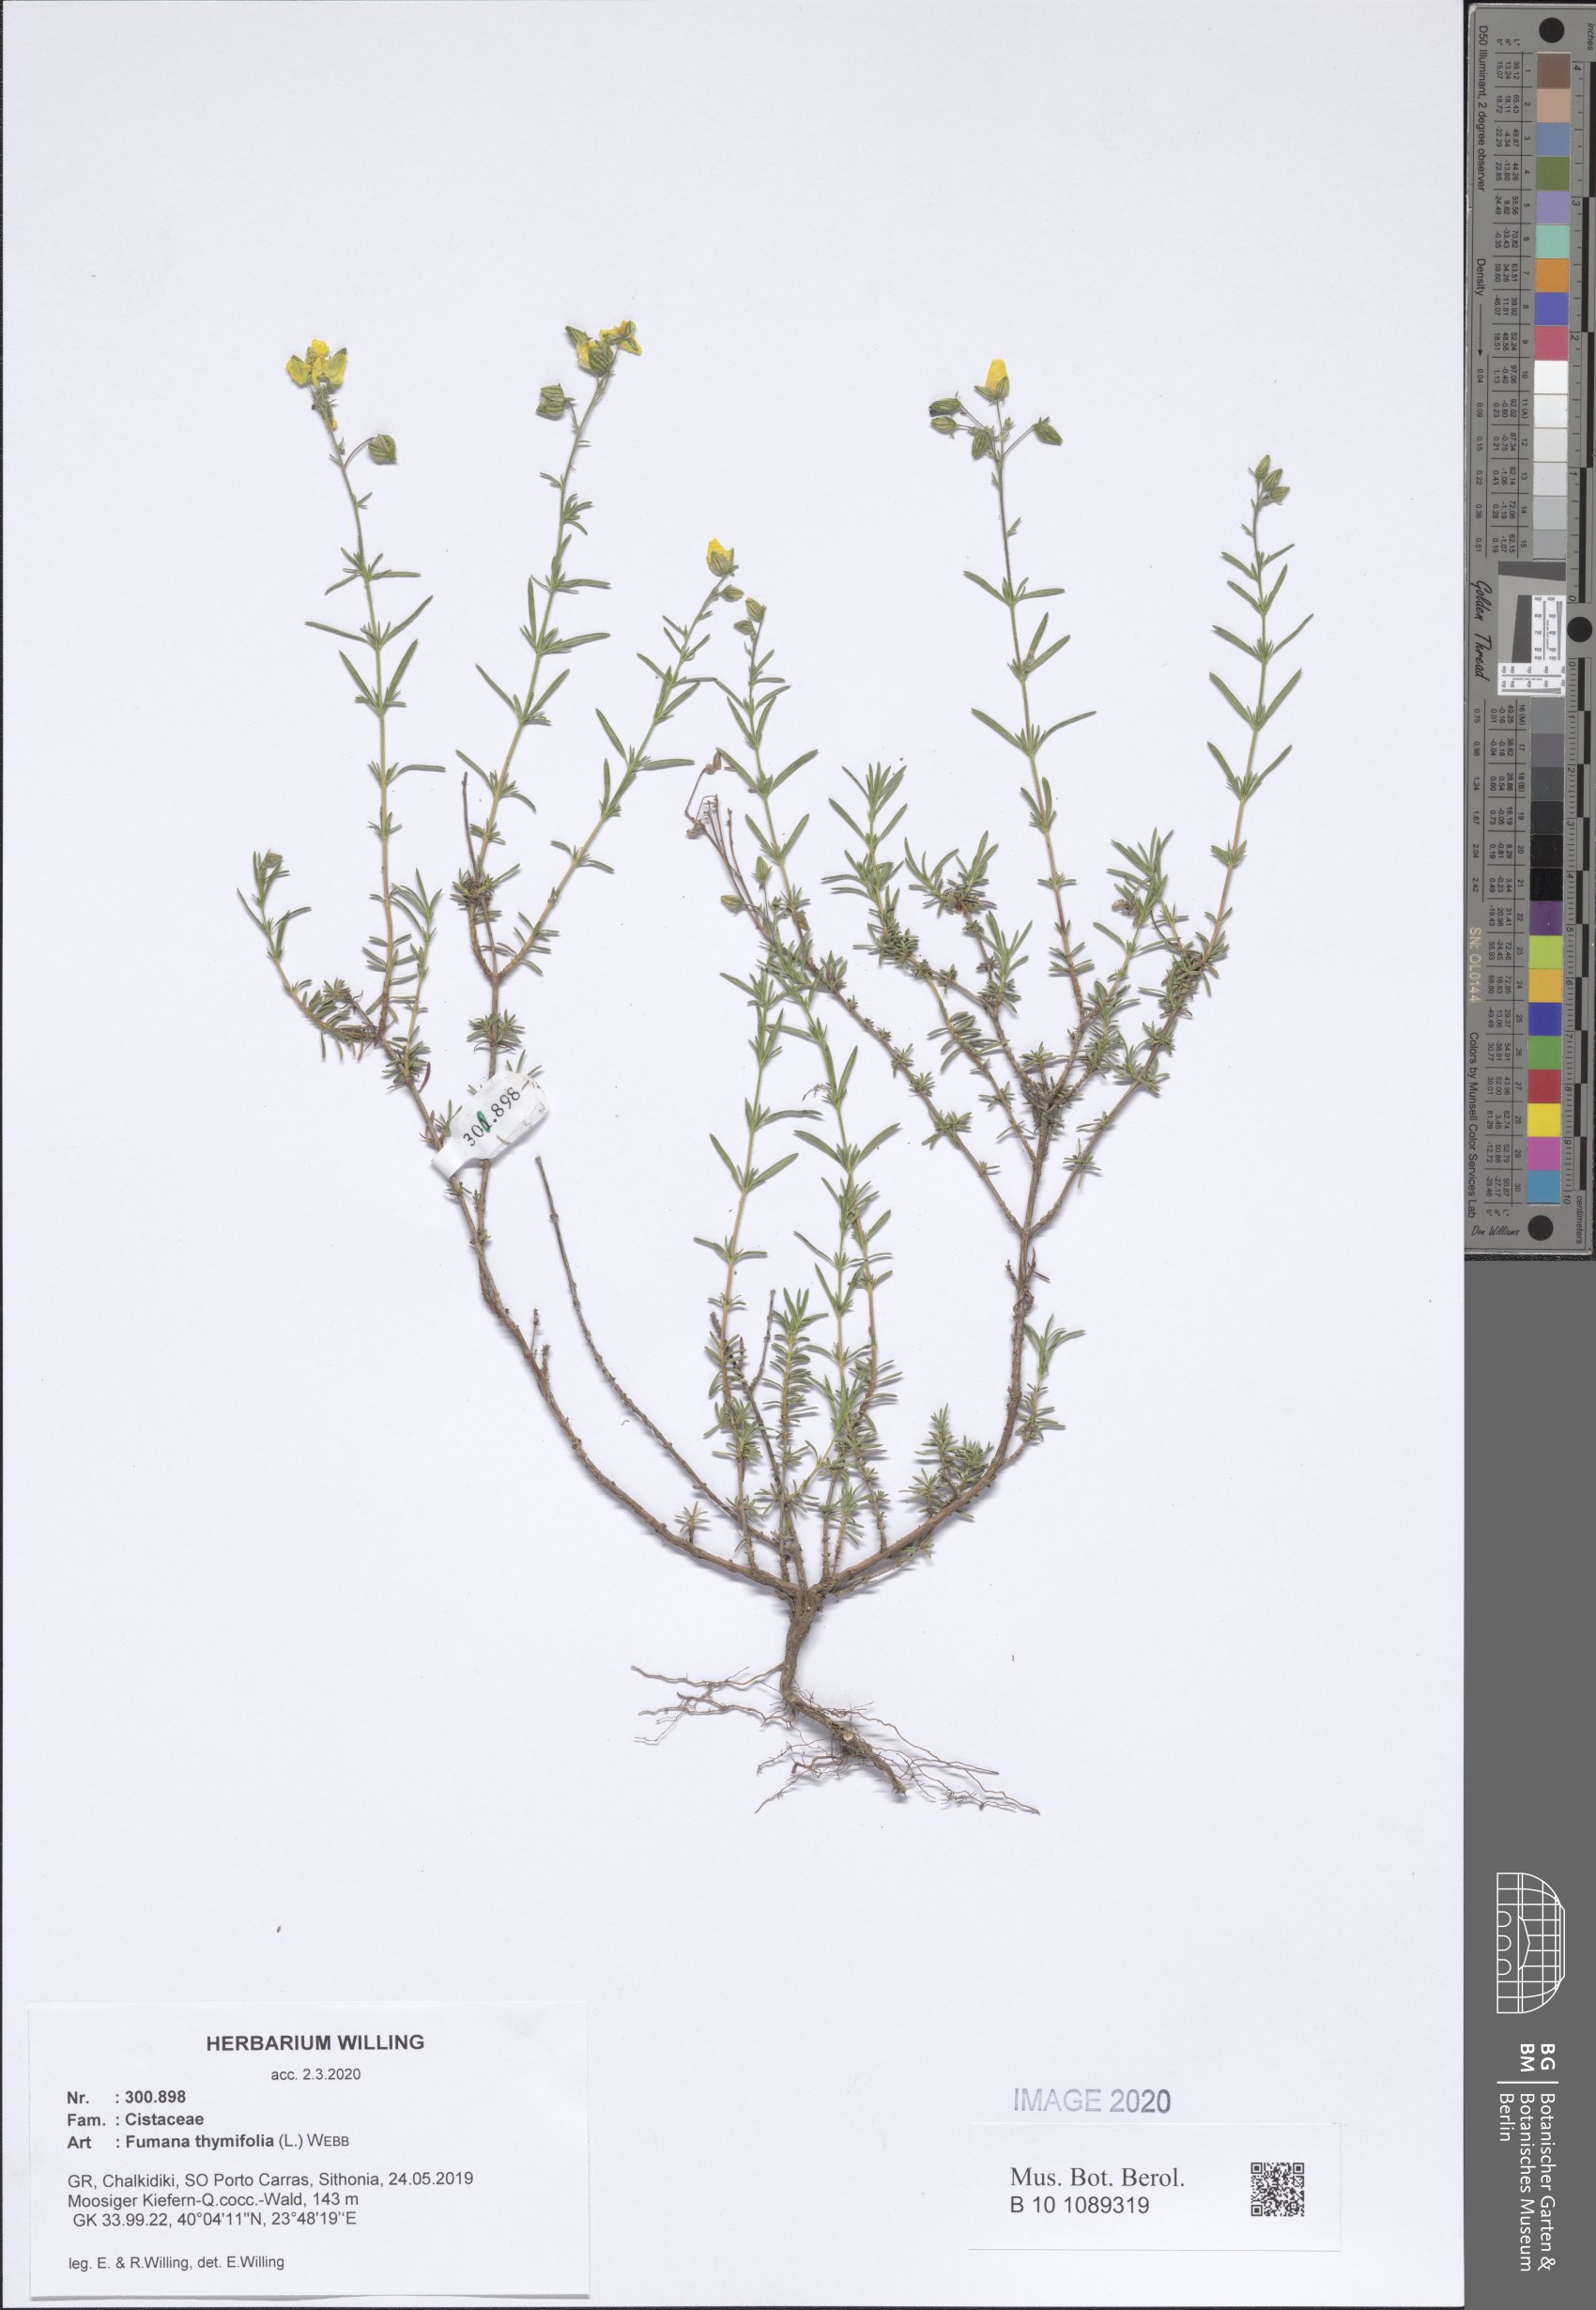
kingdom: Plantae
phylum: Tracheophyta
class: Magnoliopsida
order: Malvales
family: Cistaceae
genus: Fumana
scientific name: Fumana thymifolia
